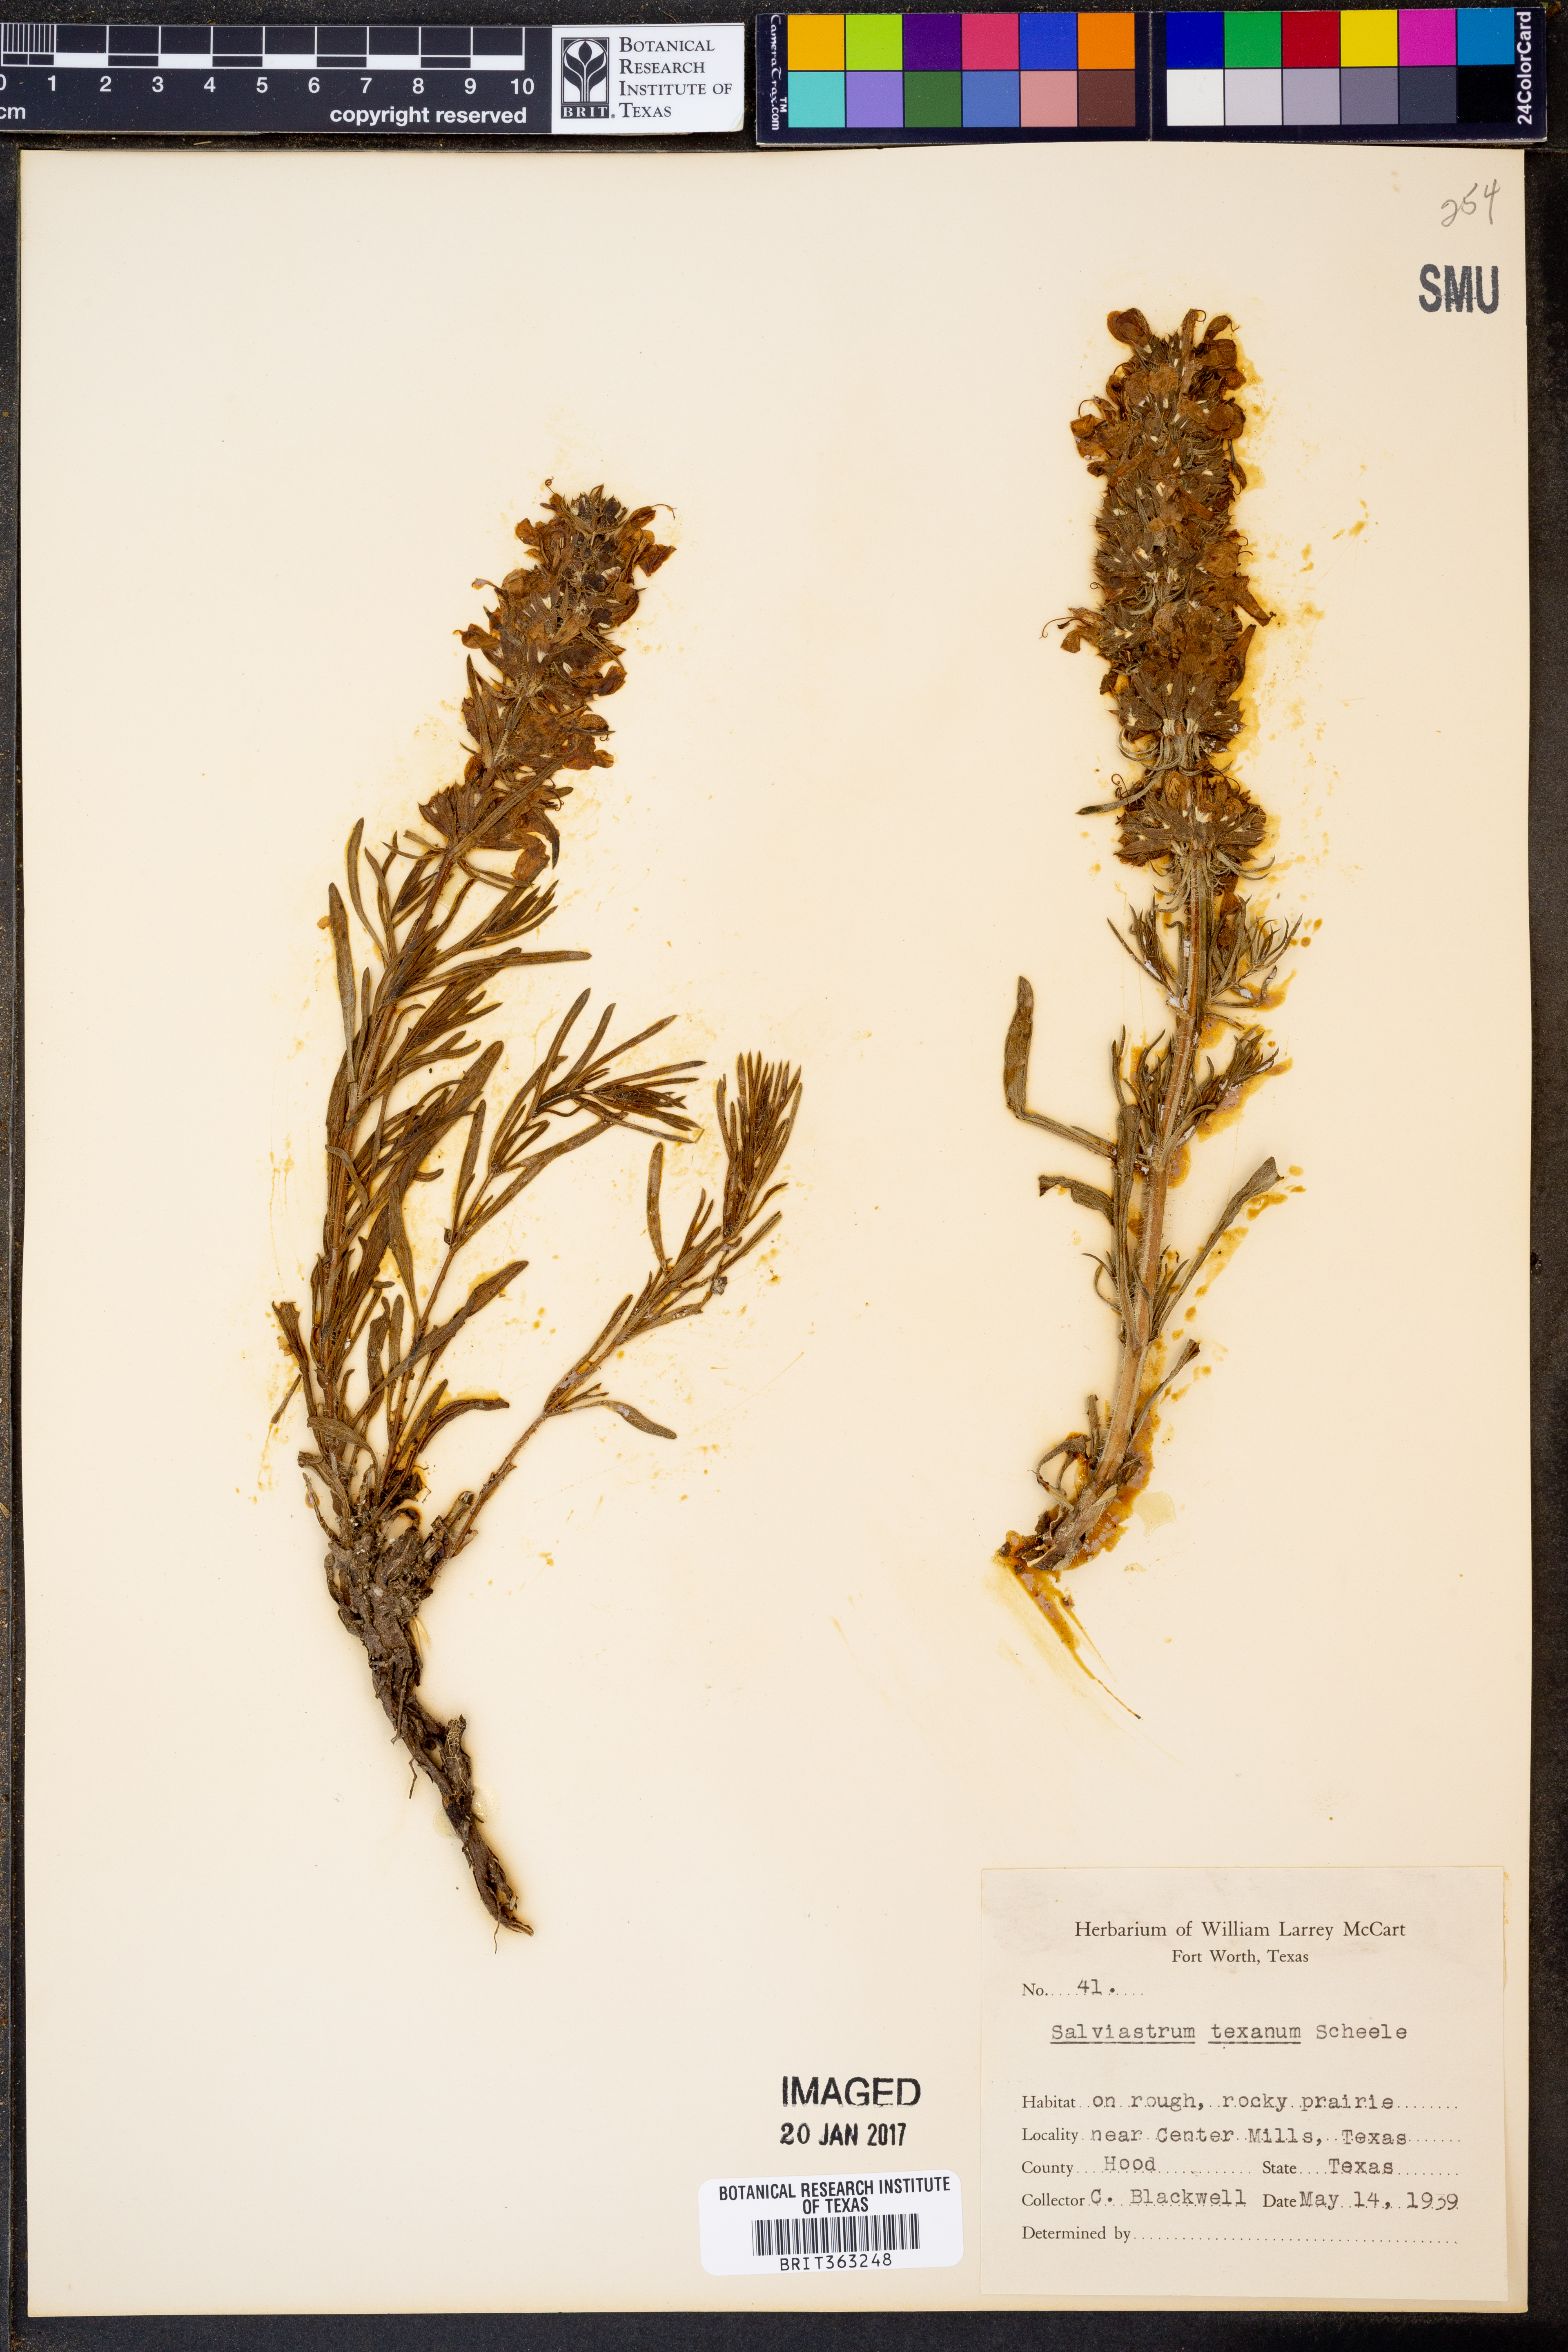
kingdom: Plantae
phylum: Tracheophyta
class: Magnoliopsida
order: Lamiales
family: Lamiaceae
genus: Salvia
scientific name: Salvia texana
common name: Texas sage
